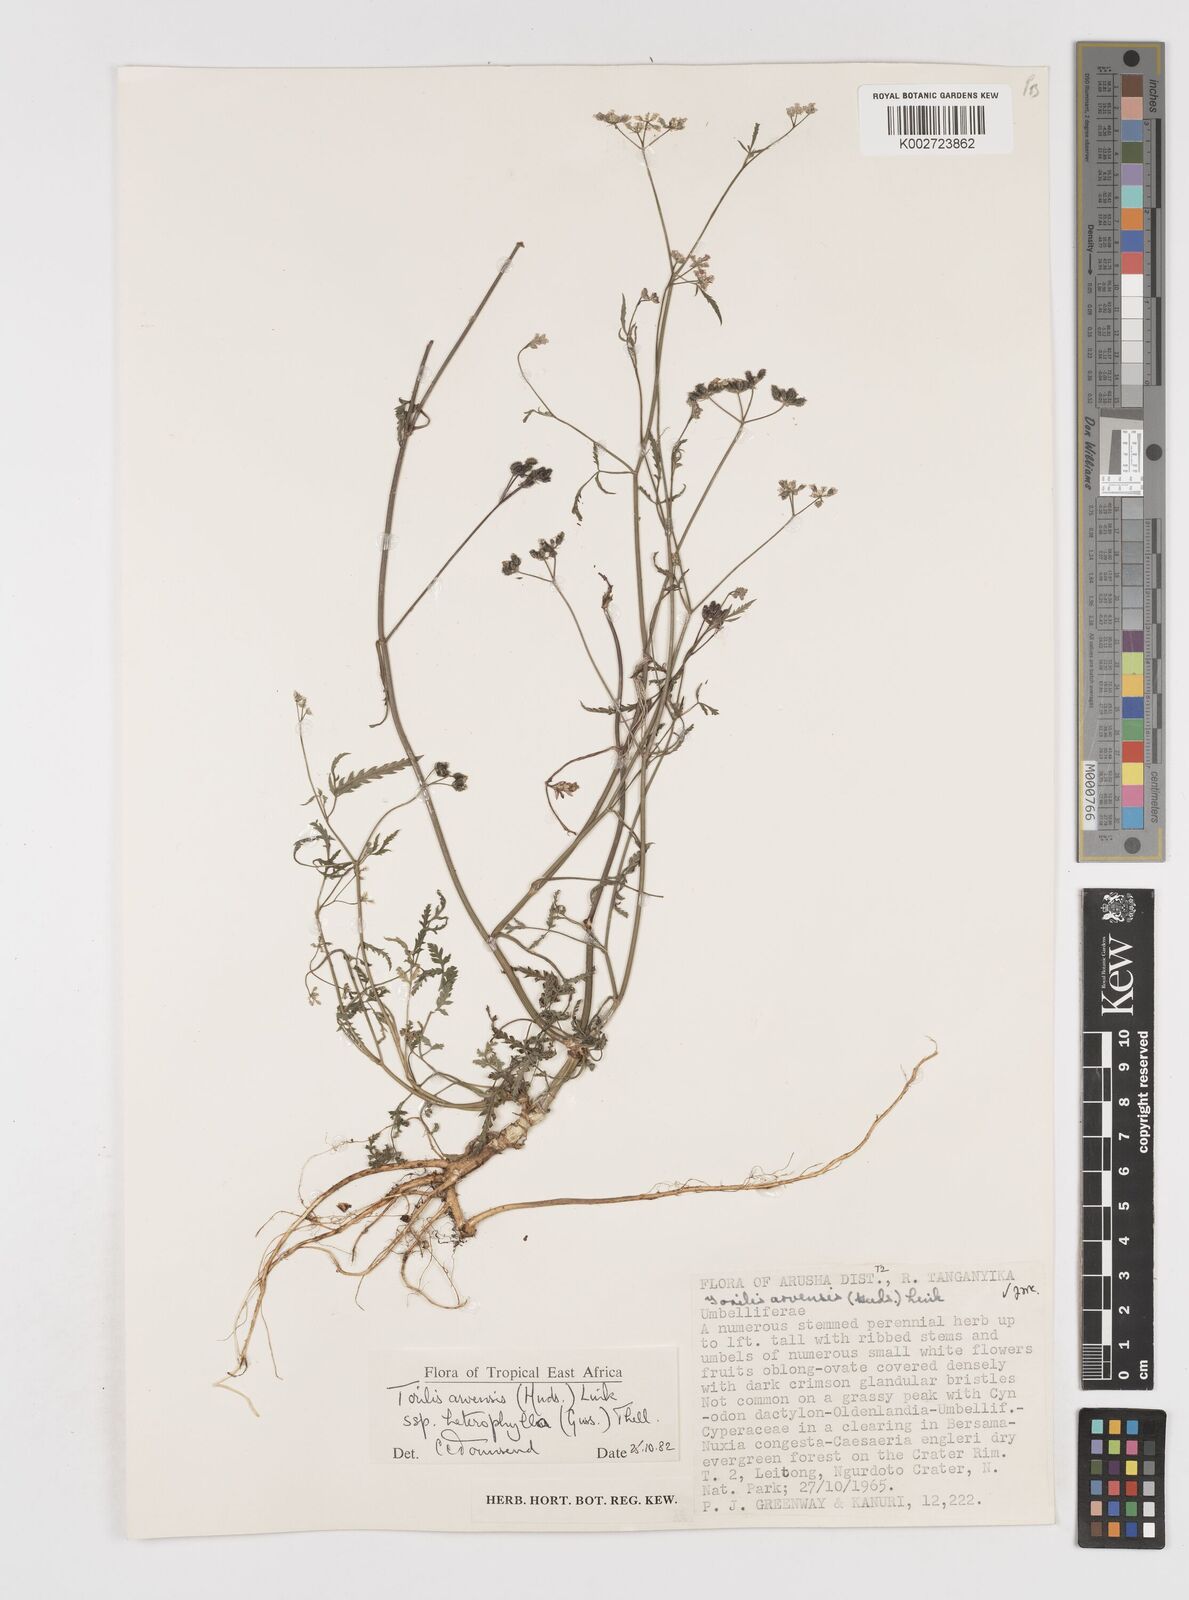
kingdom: Plantae
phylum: Tracheophyta
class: Magnoliopsida
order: Apiales
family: Apiaceae
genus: Torilis
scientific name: Torilis arvensis
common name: Spreading hedge-parsley
